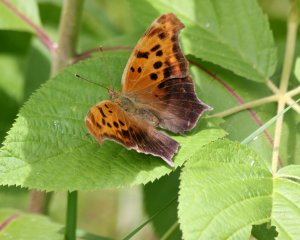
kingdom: Animalia
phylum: Arthropoda
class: Insecta
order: Lepidoptera
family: Nymphalidae
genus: Polygonia
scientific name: Polygonia interrogationis
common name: Question Mark
